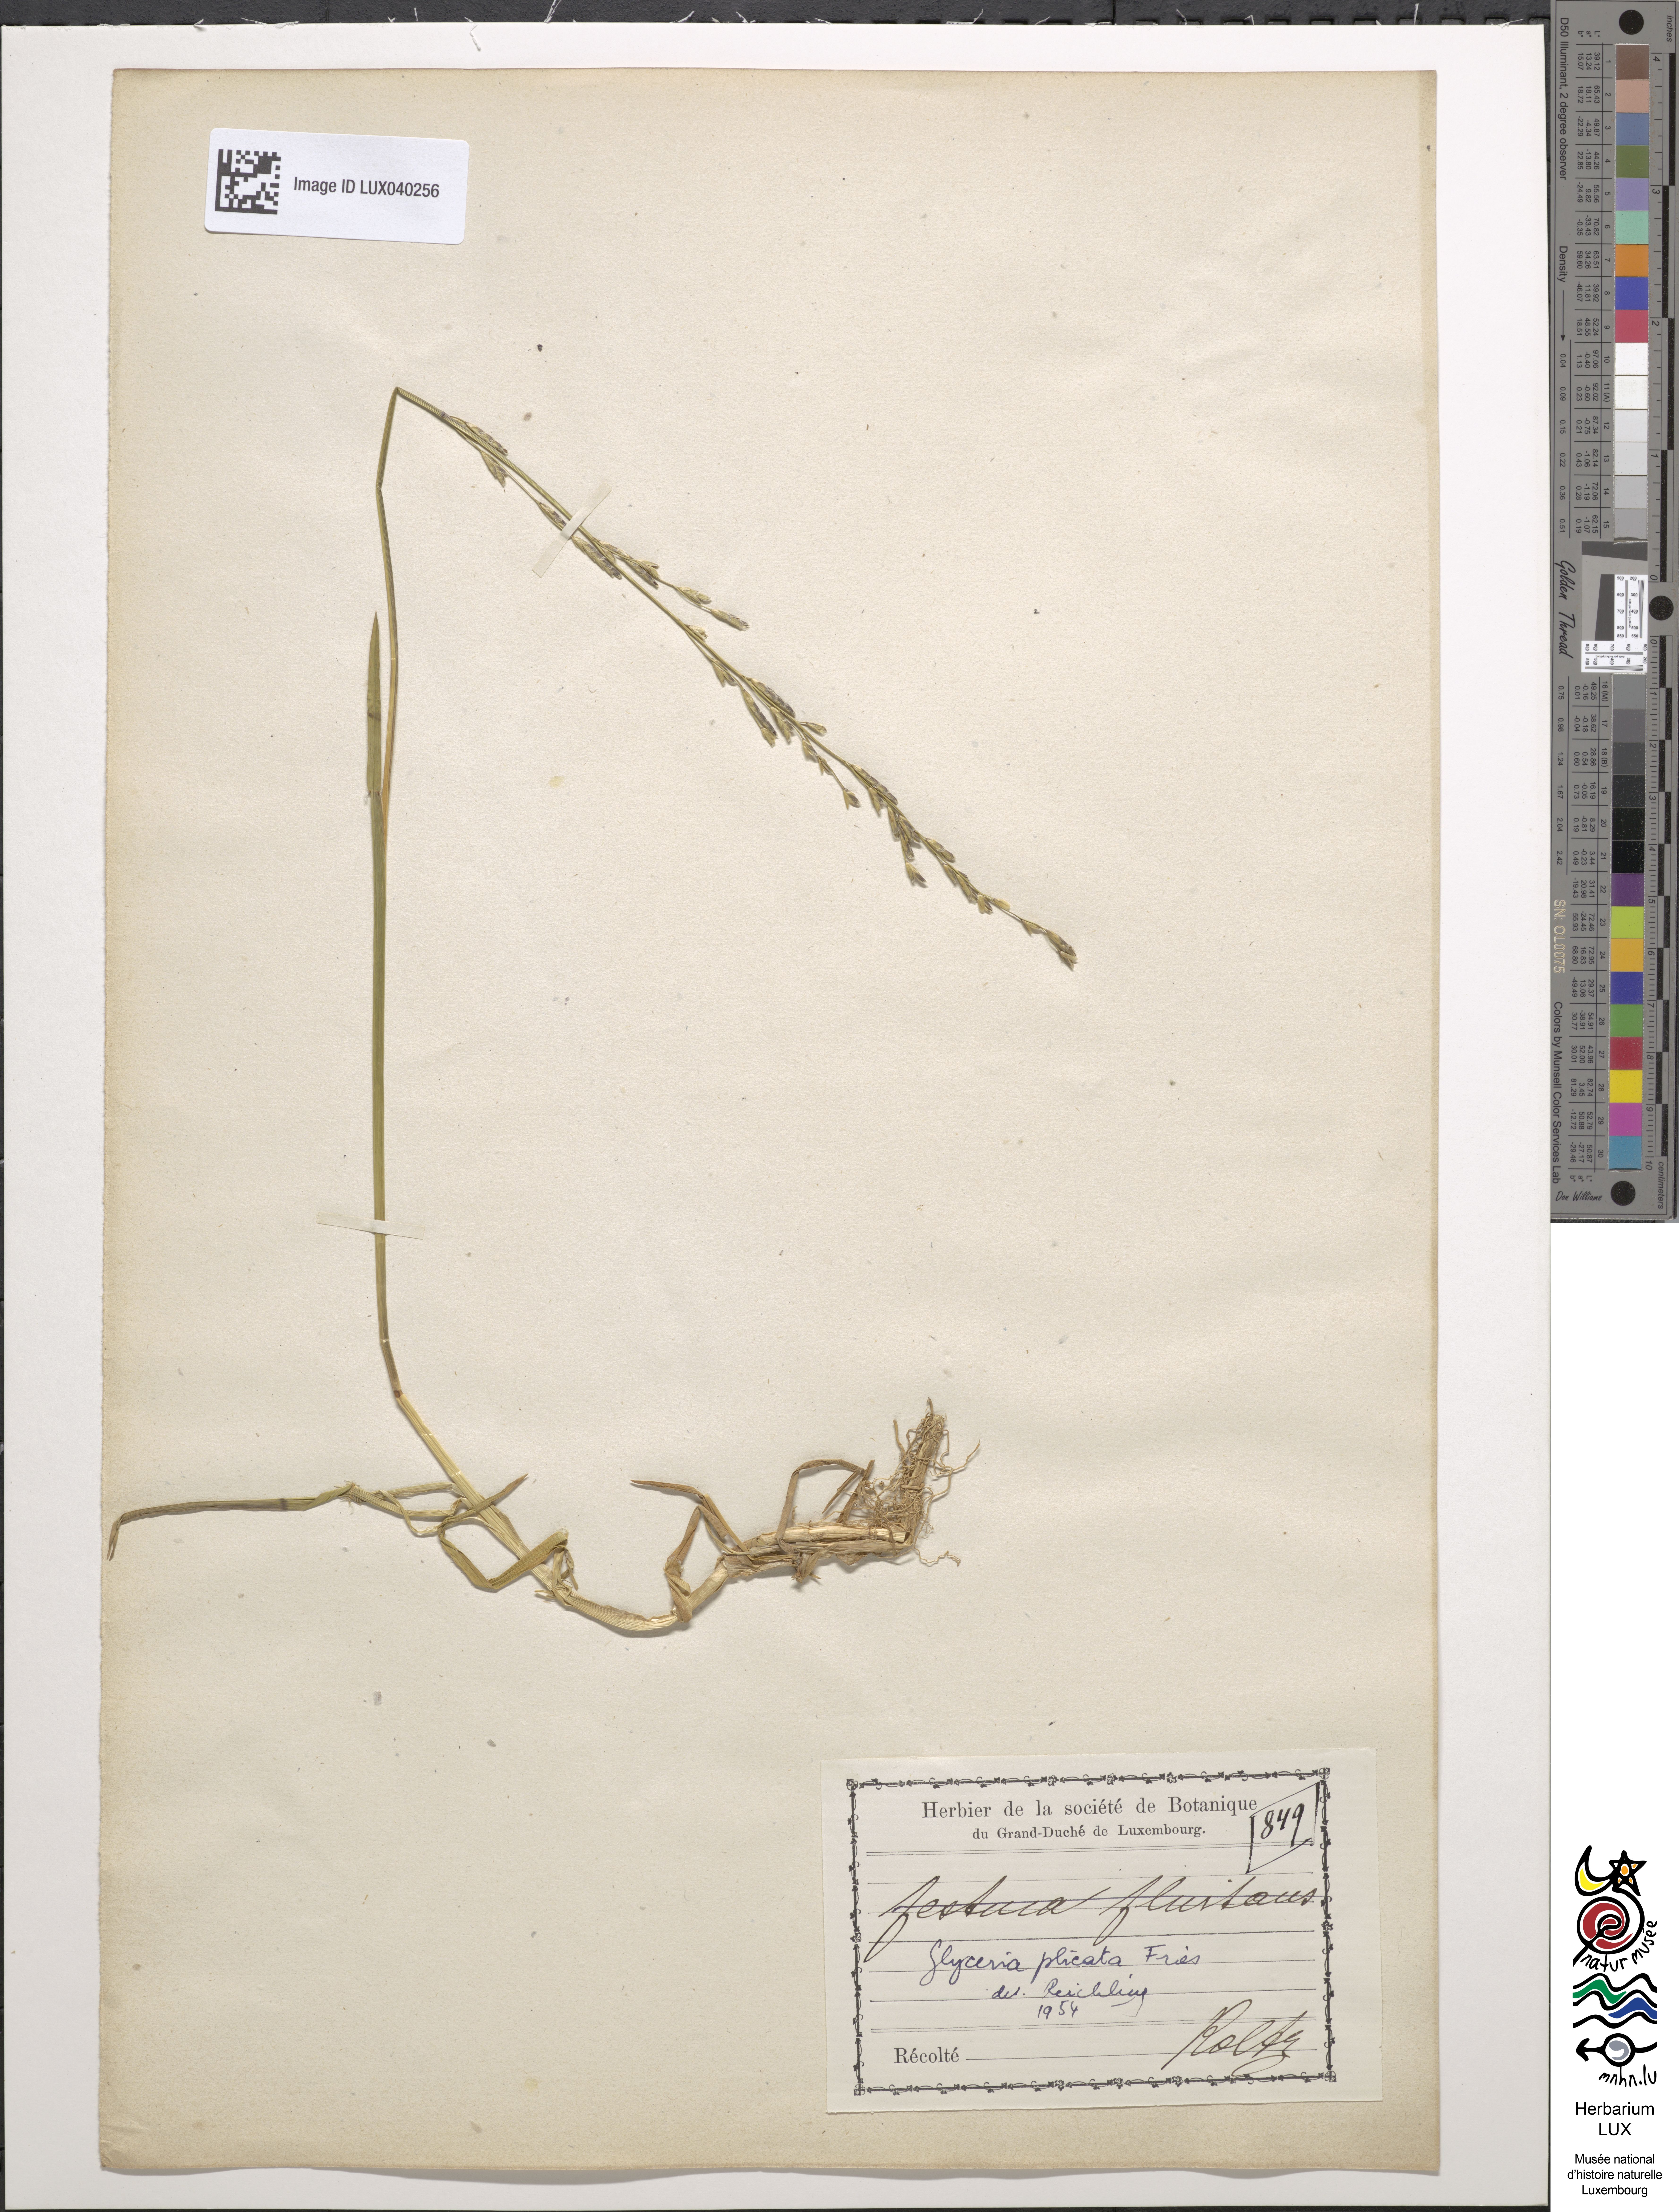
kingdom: Plantae
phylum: Tracheophyta
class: Liliopsida
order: Poales
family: Poaceae
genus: Glyceria
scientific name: Glyceria notata
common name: Plicate sweet-grass
